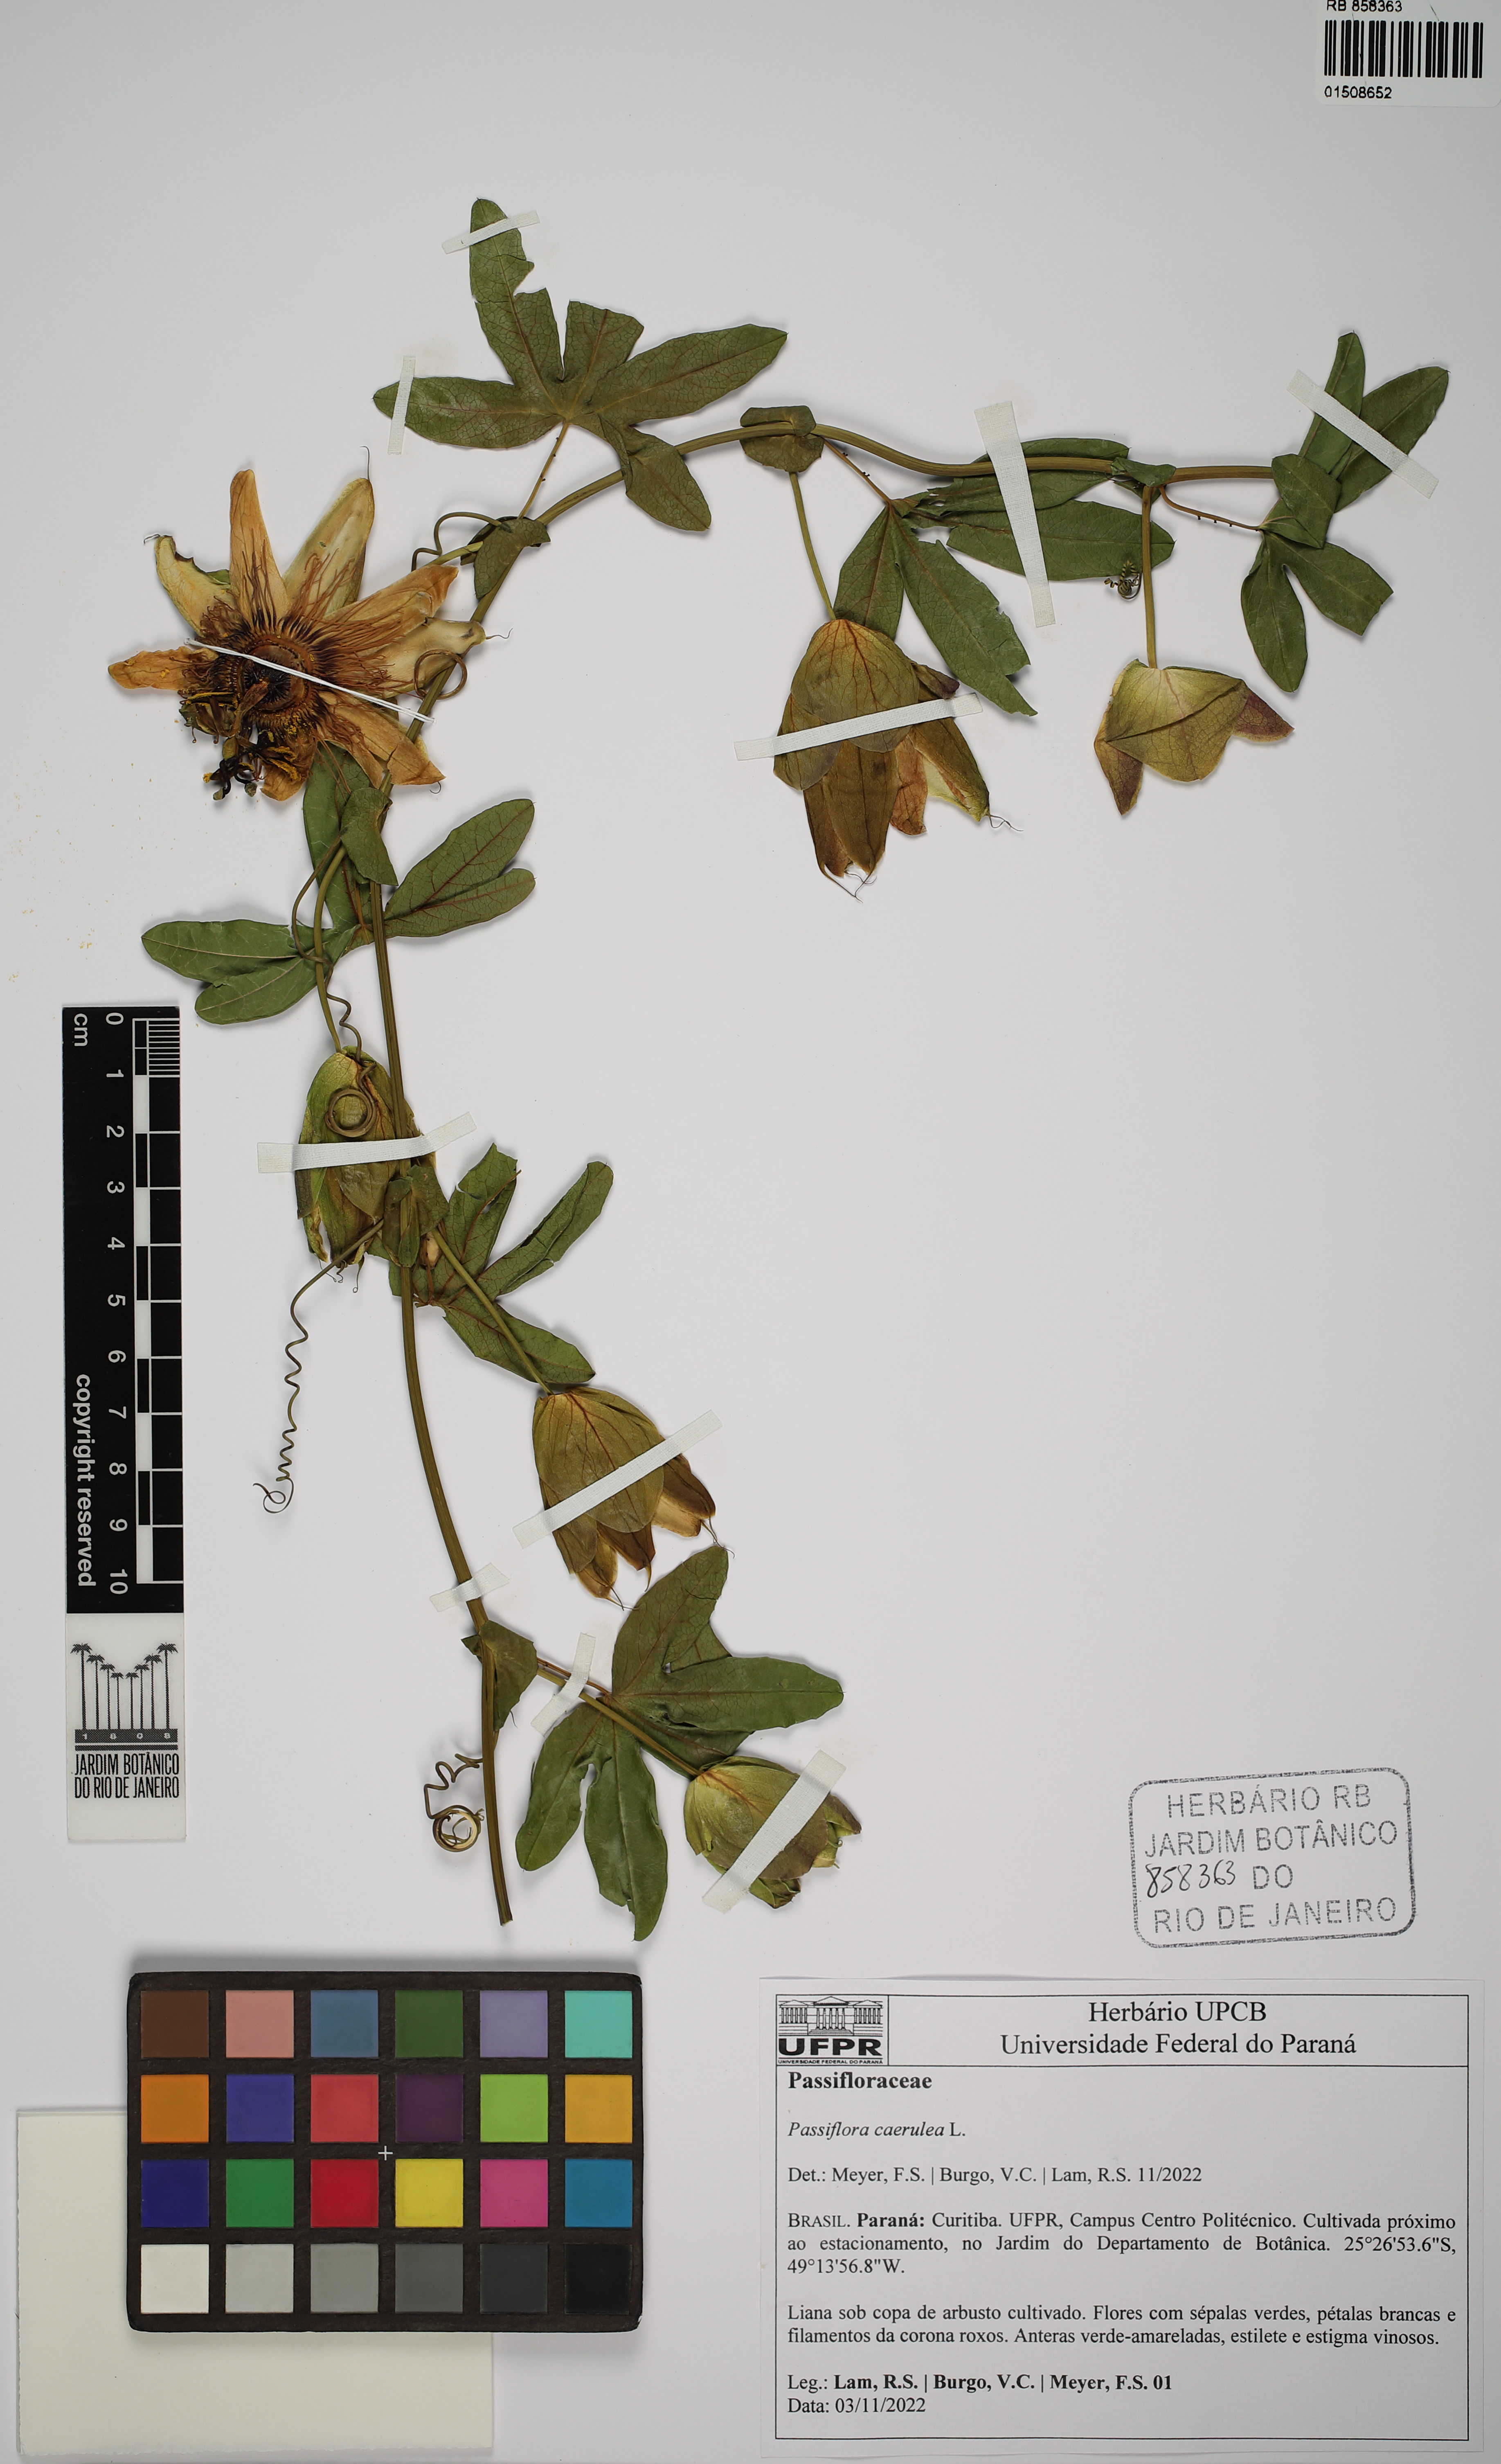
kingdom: Plantae
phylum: Tracheophyta
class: Magnoliopsida
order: Malpighiales
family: Passifloraceae
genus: Passiflora
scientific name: Passiflora caerulea
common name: Blue passionflower
